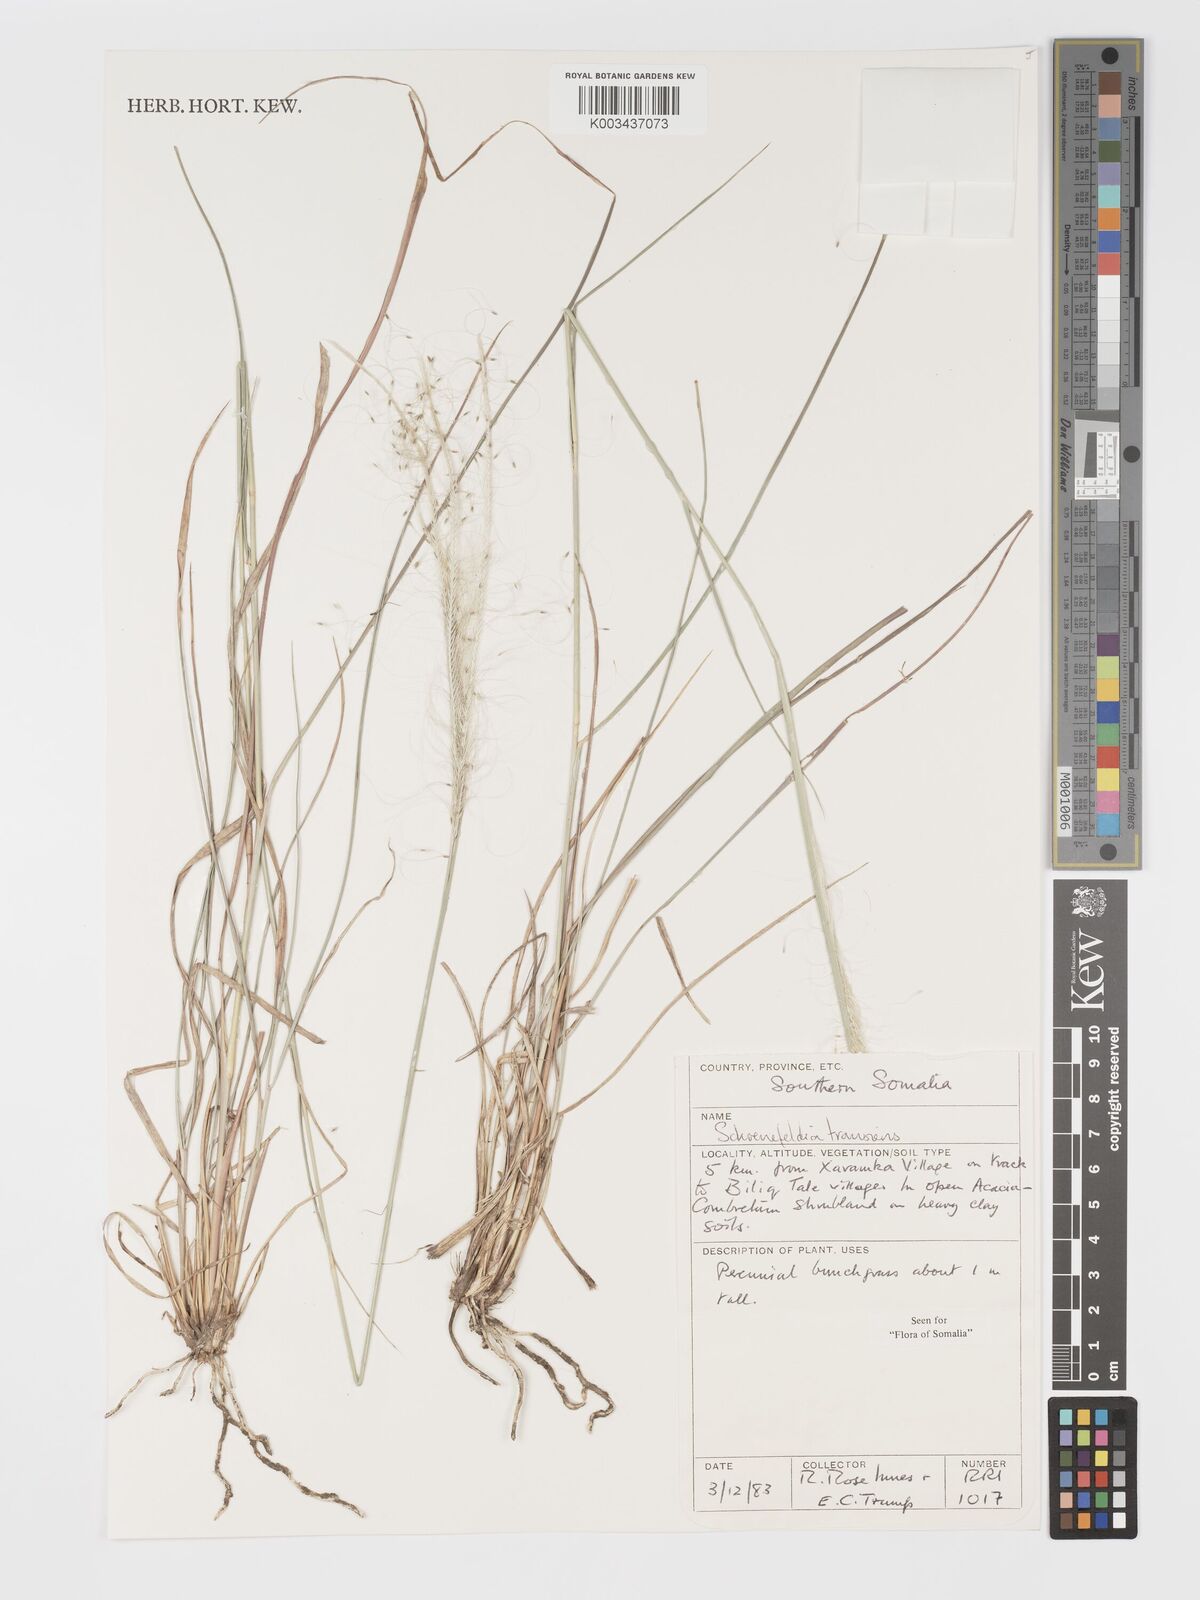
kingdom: Plantae
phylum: Tracheophyta
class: Liliopsida
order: Poales
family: Poaceae
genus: Schoenefeldia
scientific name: Schoenefeldia transiens
